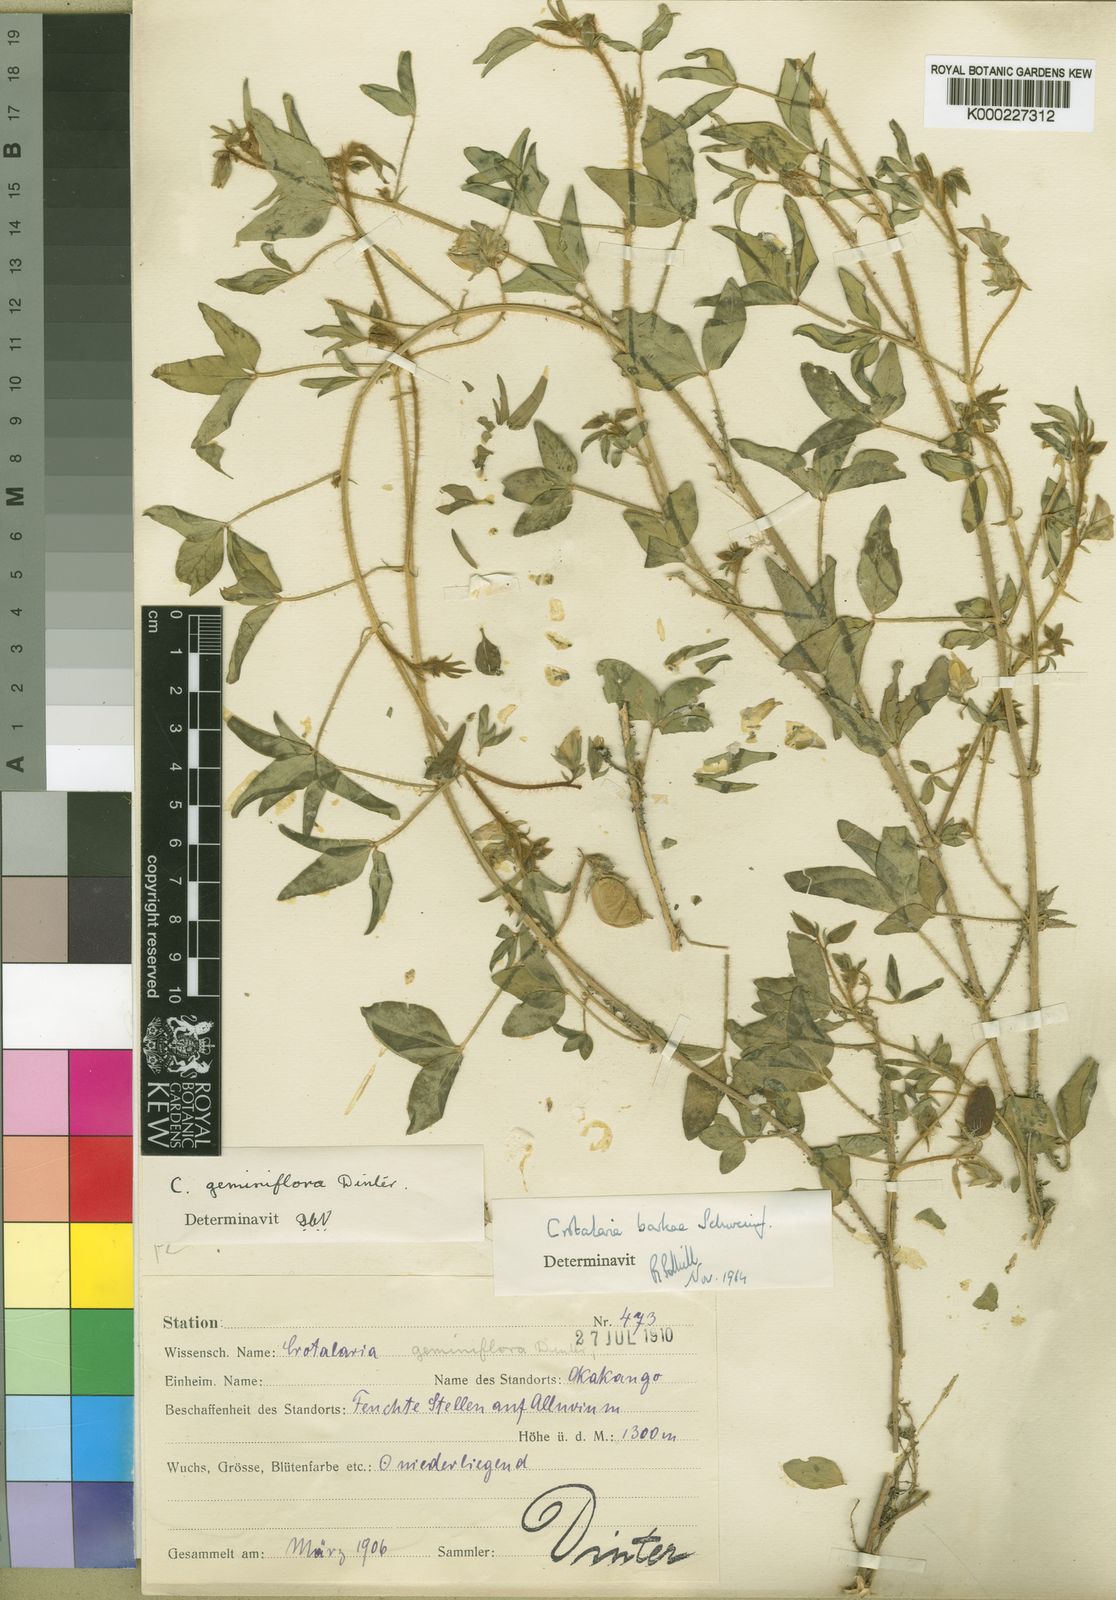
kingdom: Plantae
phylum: Tracheophyta
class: Magnoliopsida
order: Fabales
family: Fabaceae
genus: Crotalaria
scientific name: Crotalaria barkae
